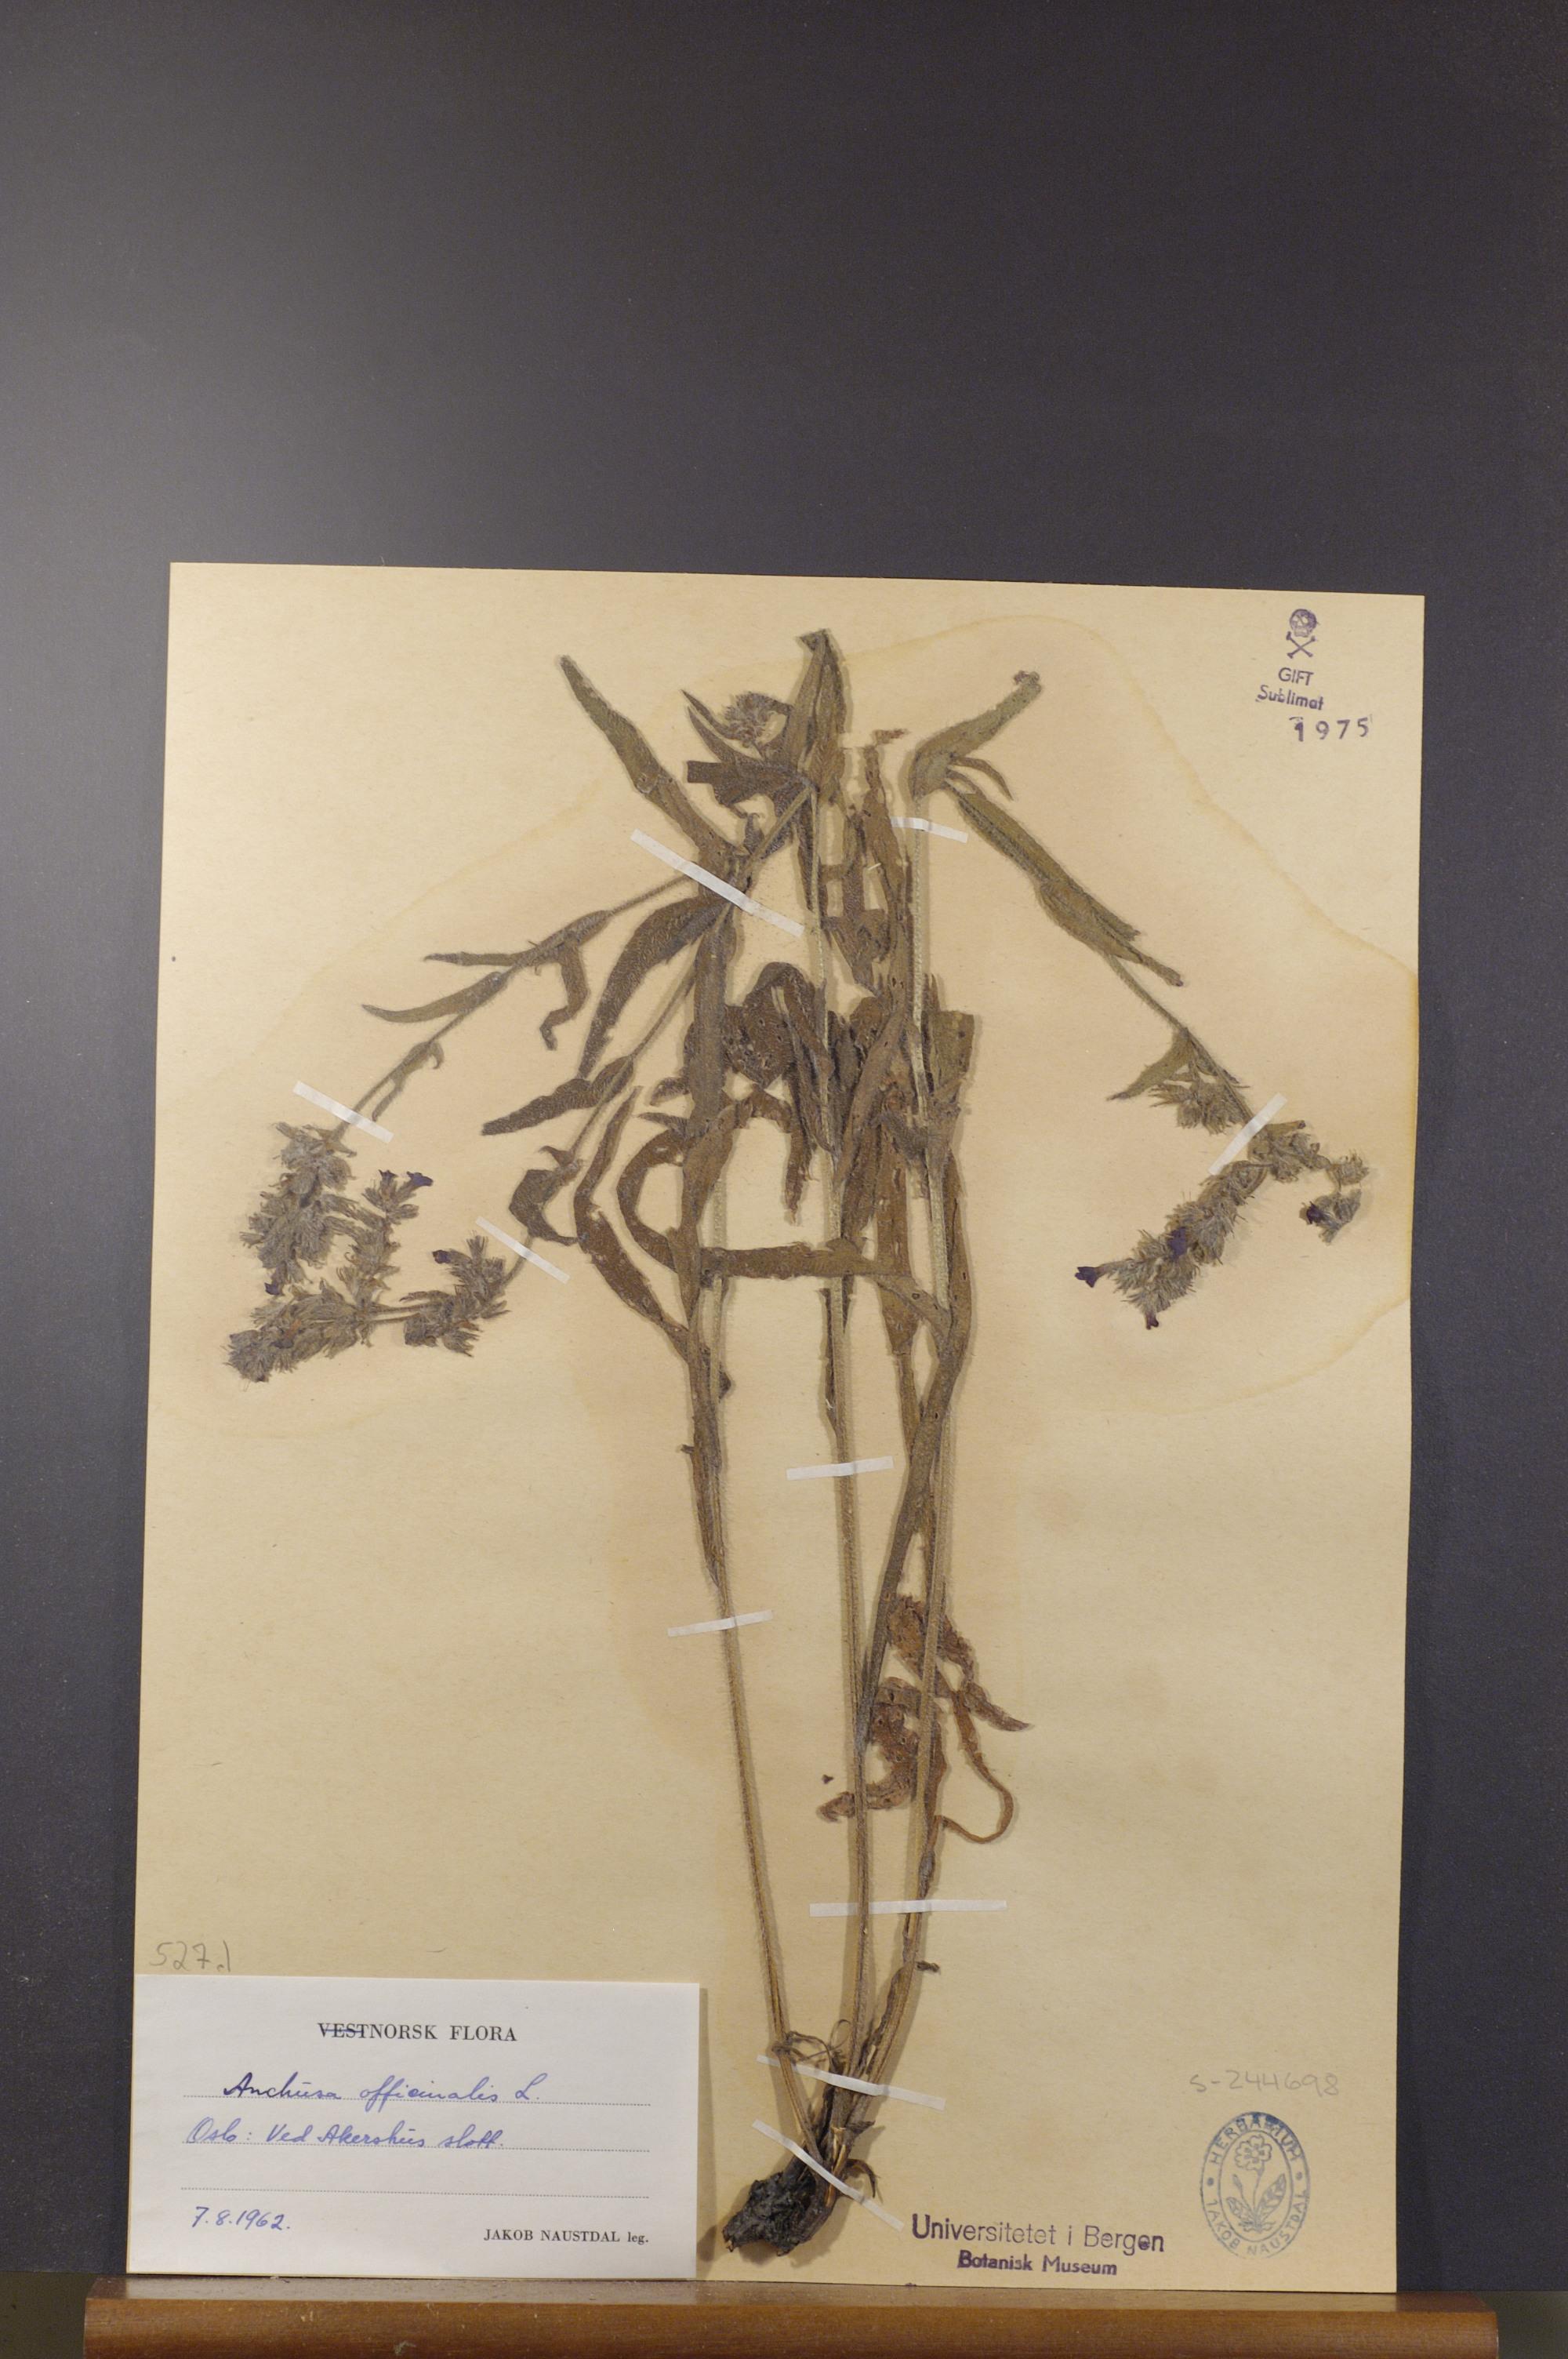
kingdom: Plantae
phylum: Tracheophyta
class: Magnoliopsida
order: Boraginales
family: Boraginaceae
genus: Anchusa
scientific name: Anchusa officinalis
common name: Alkanet
